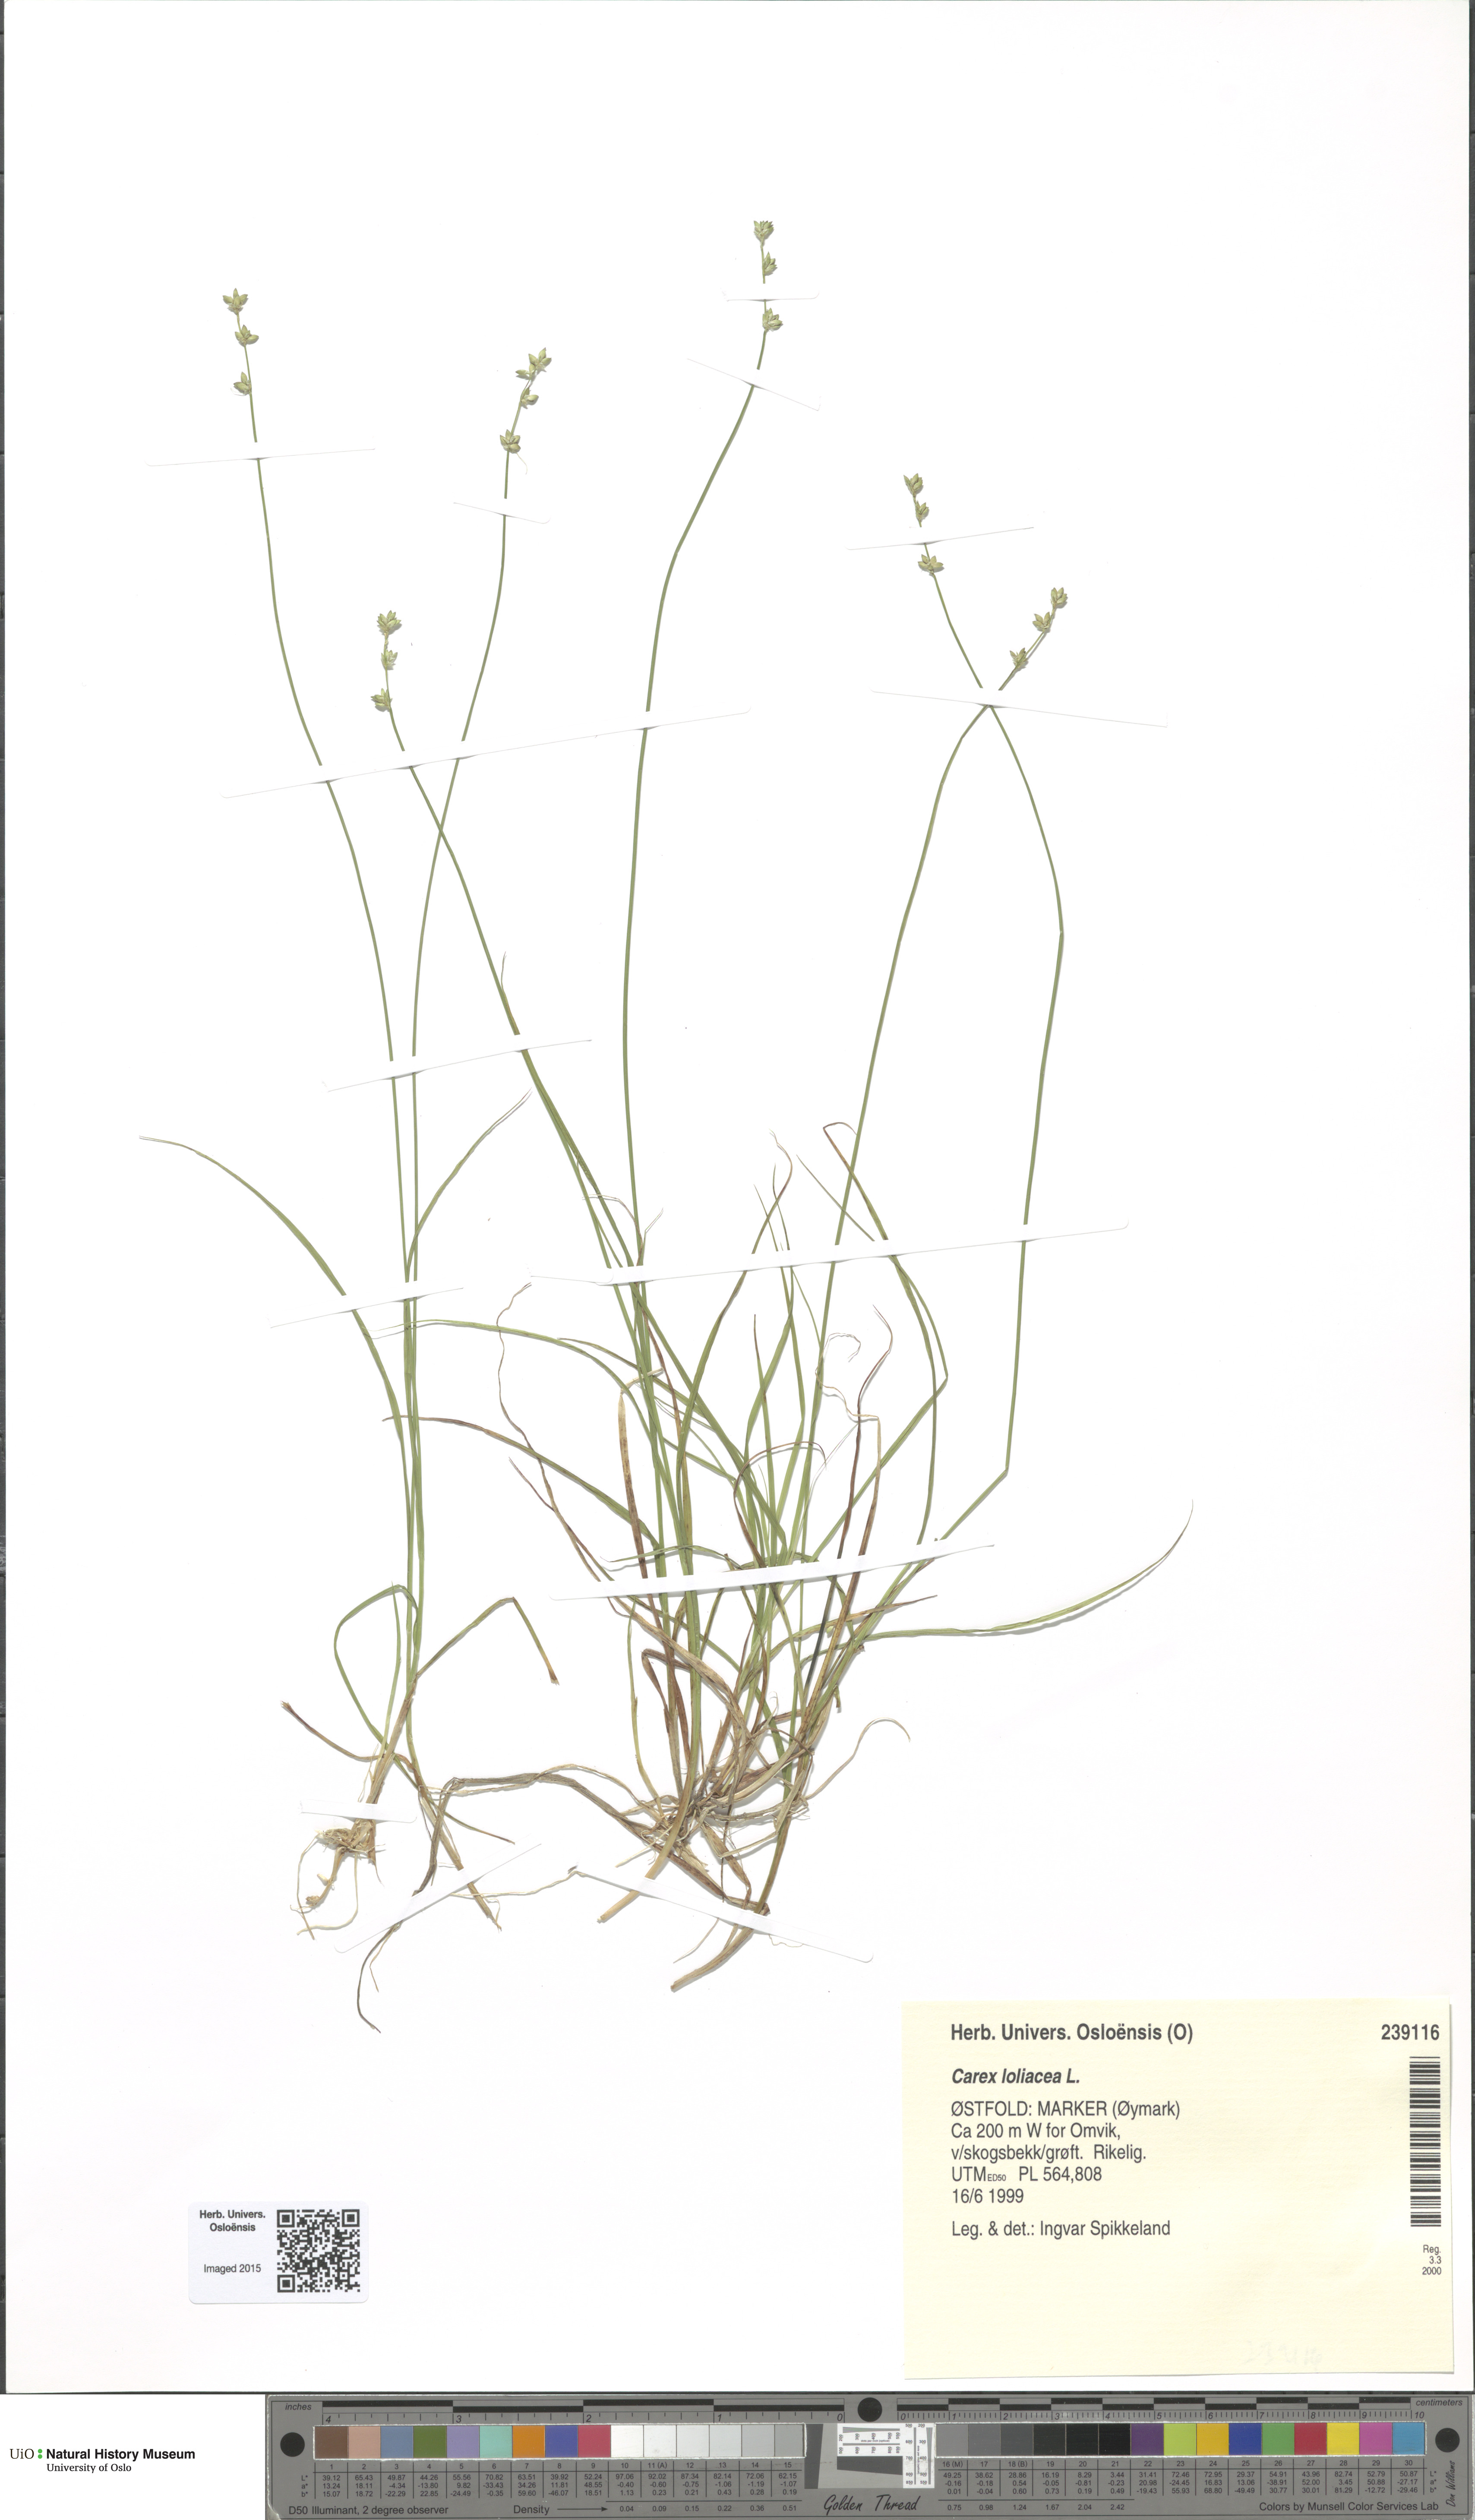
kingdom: Plantae
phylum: Tracheophyta
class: Liliopsida
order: Poales
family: Cyperaceae
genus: Carex
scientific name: Carex loliacea
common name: Ryegrass sedge
